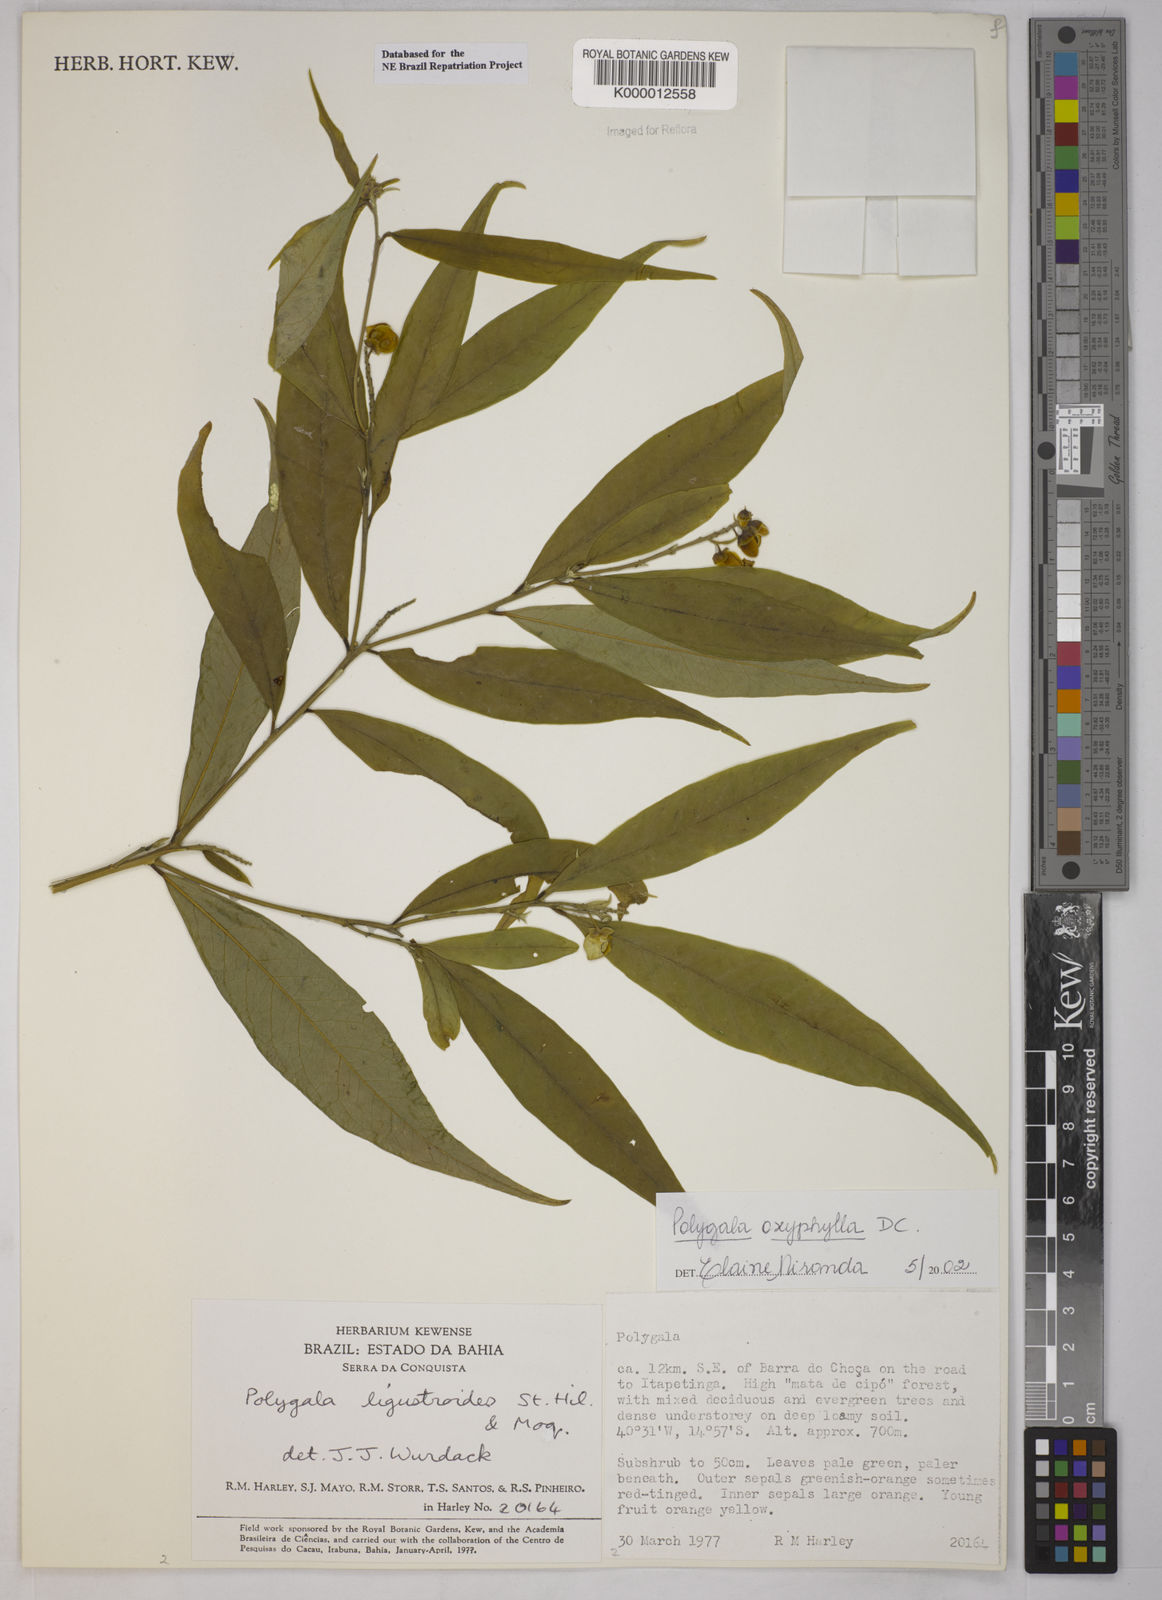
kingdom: Plantae
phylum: Tracheophyta
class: Magnoliopsida
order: Fabales
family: Polygalaceae
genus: Caamembeca
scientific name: Caamembeca oxyphylla
